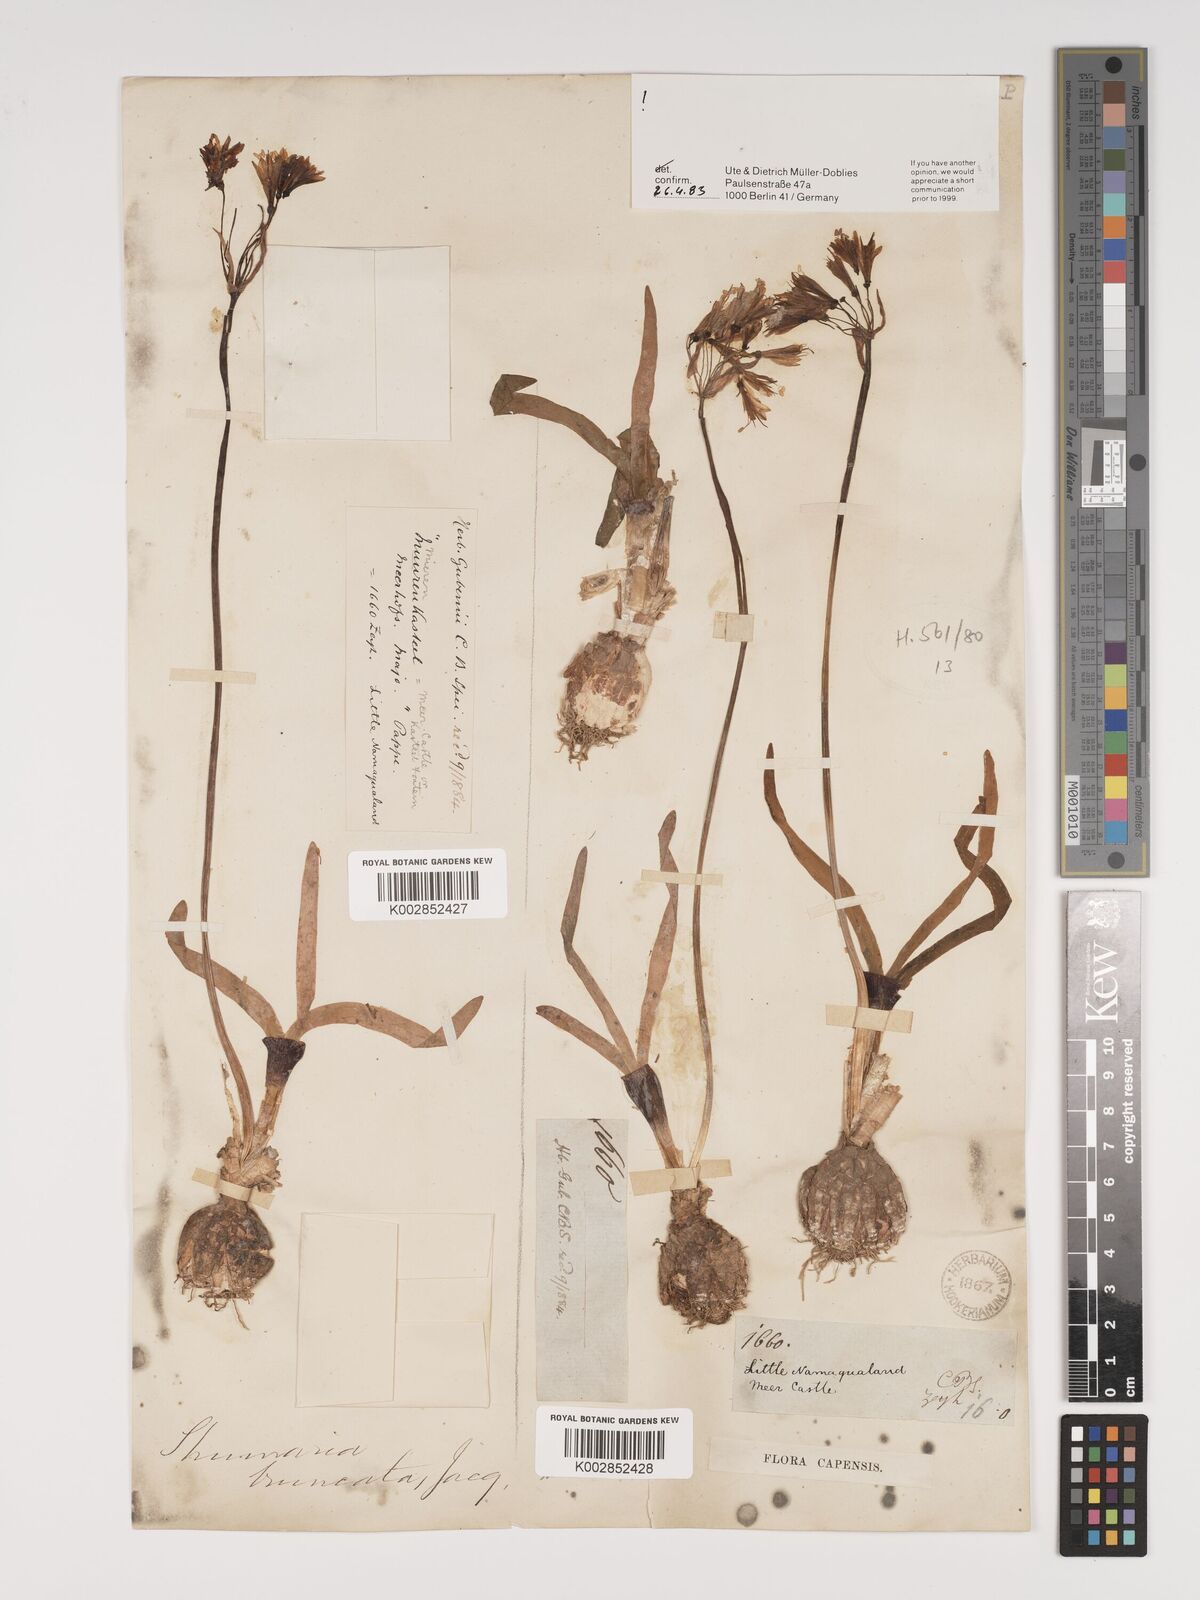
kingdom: Plantae
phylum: Tracheophyta
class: Liliopsida
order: Asparagales
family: Amaryllidaceae
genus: Strumaria
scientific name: Strumaria truncata
